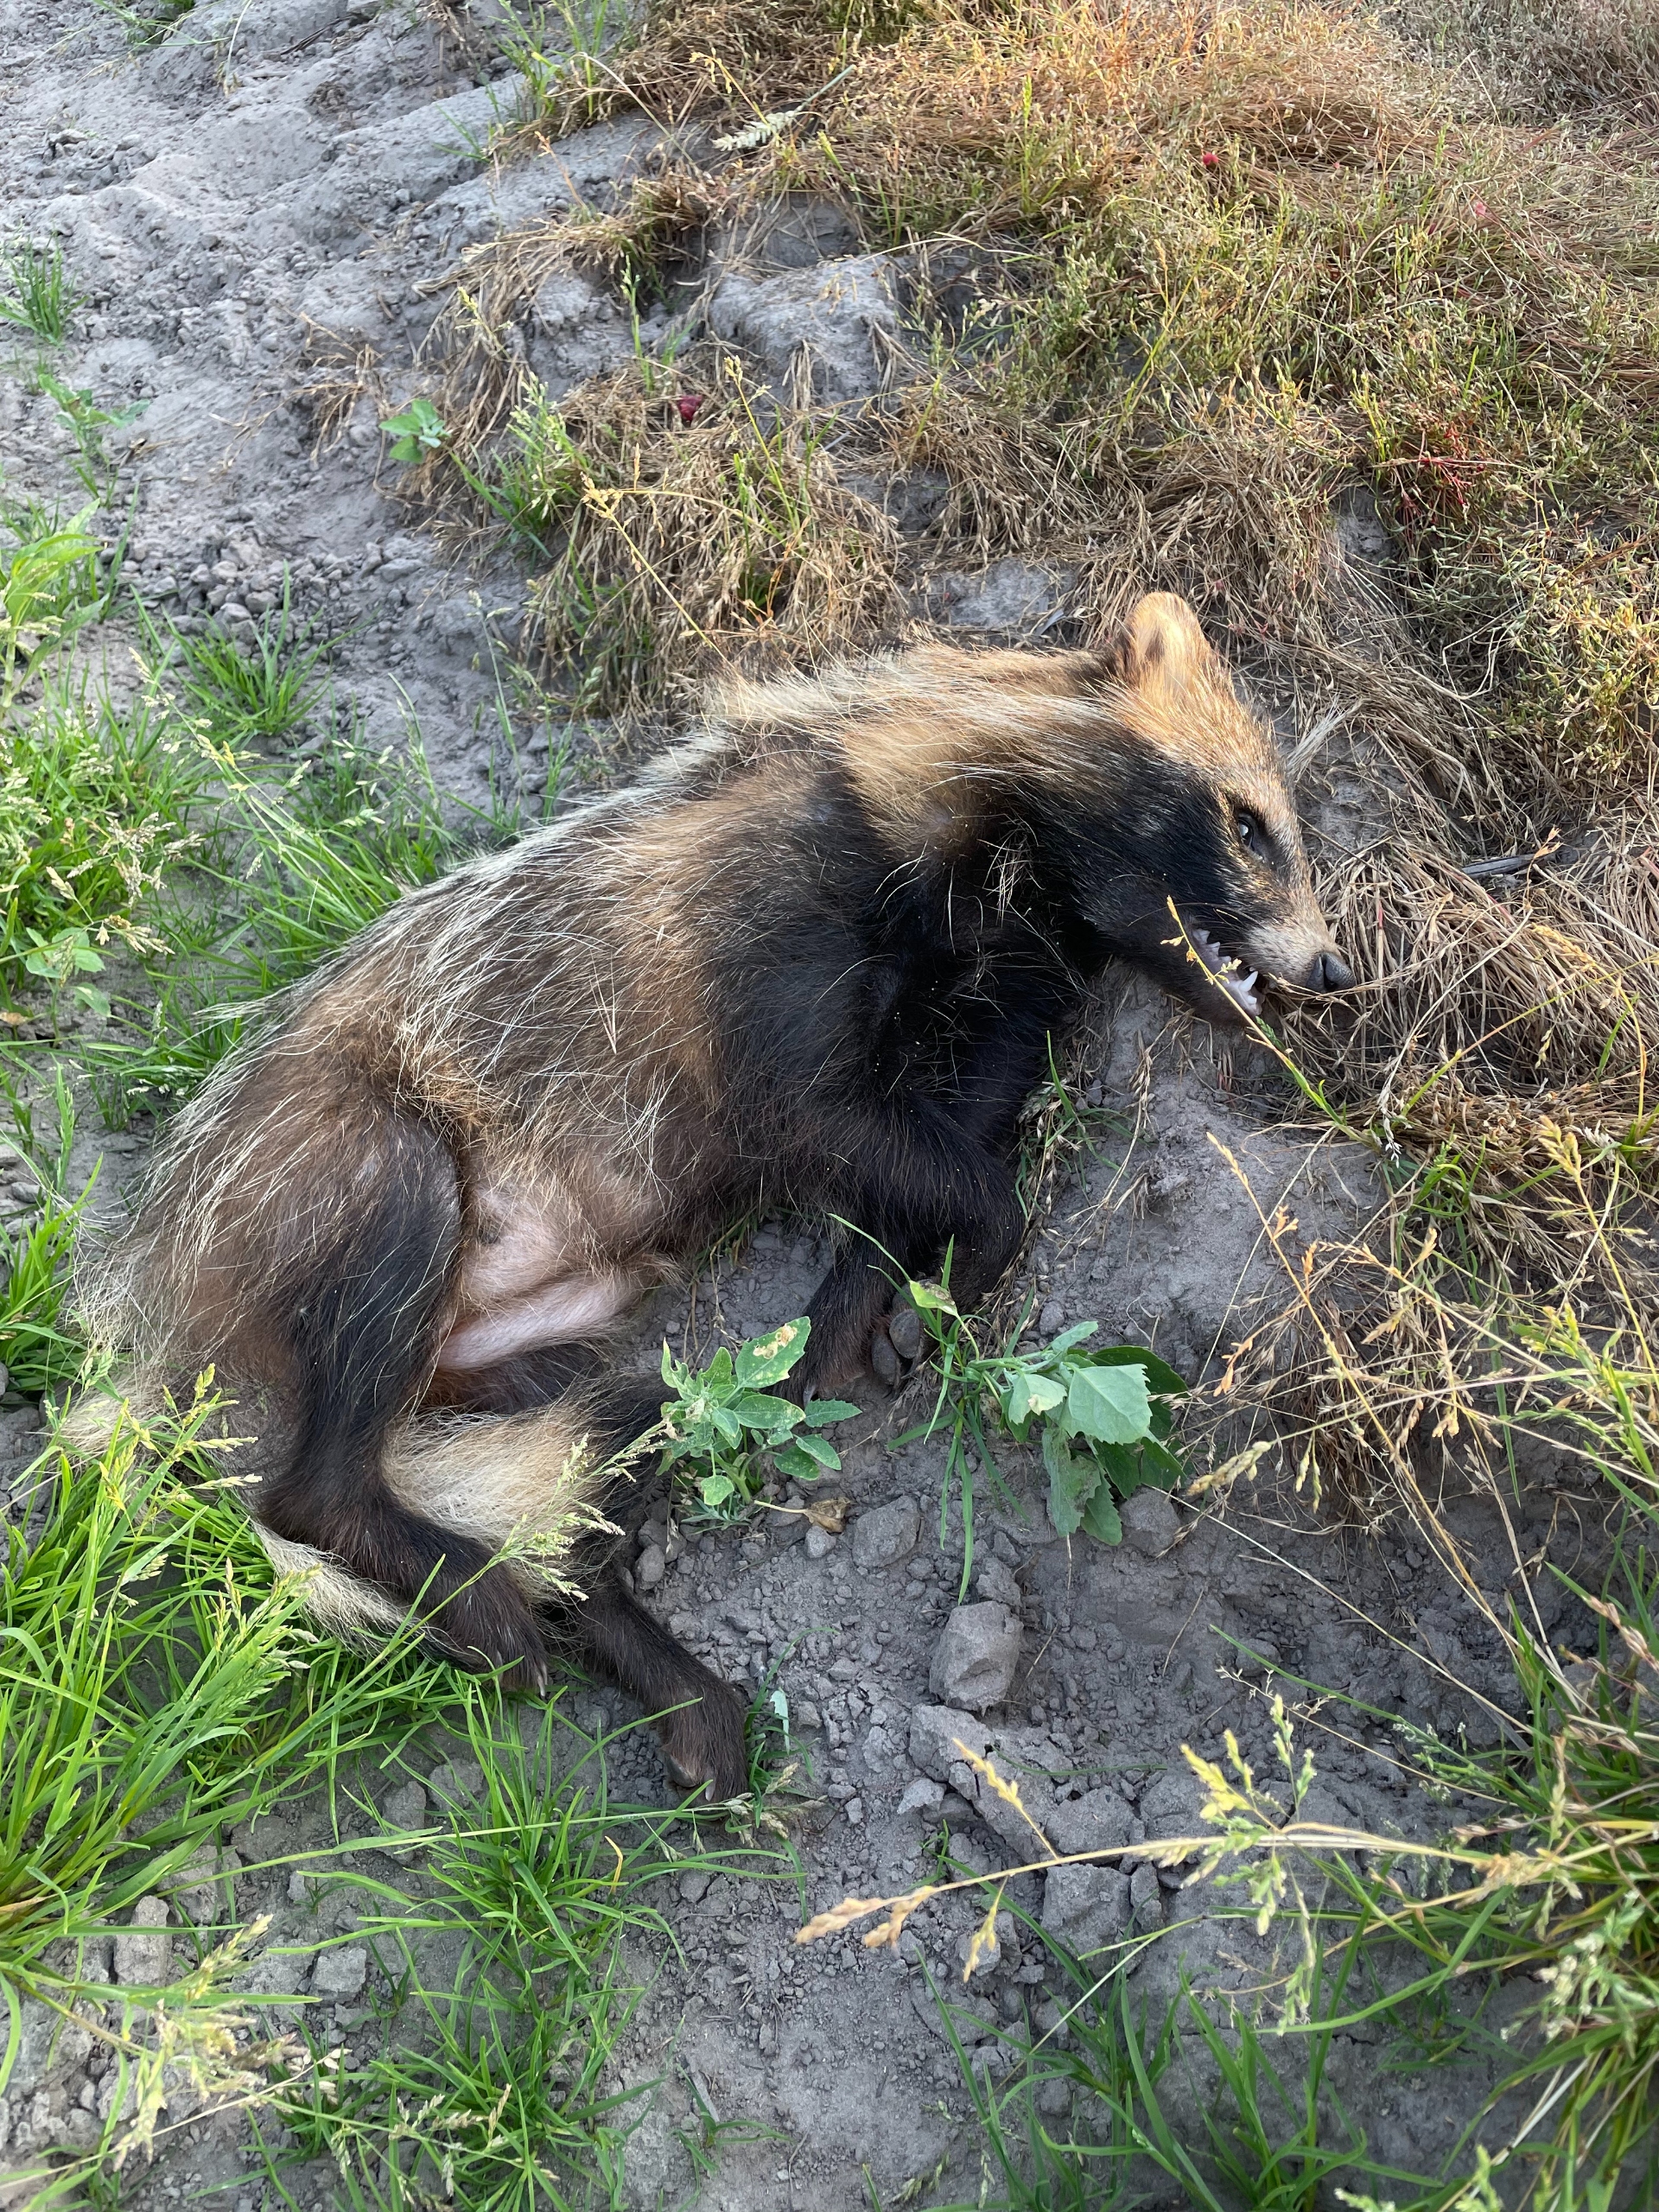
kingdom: Animalia
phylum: Chordata
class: Mammalia
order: Carnivora
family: Canidae
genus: Nyctereutes
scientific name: Nyctereutes procyonoides
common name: Mårhund
